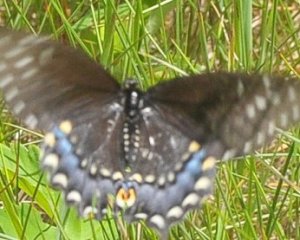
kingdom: Animalia
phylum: Arthropoda
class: Insecta
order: Lepidoptera
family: Papilionidae
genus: Papilio
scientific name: Papilio polyxenes
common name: Black Swallowtail
